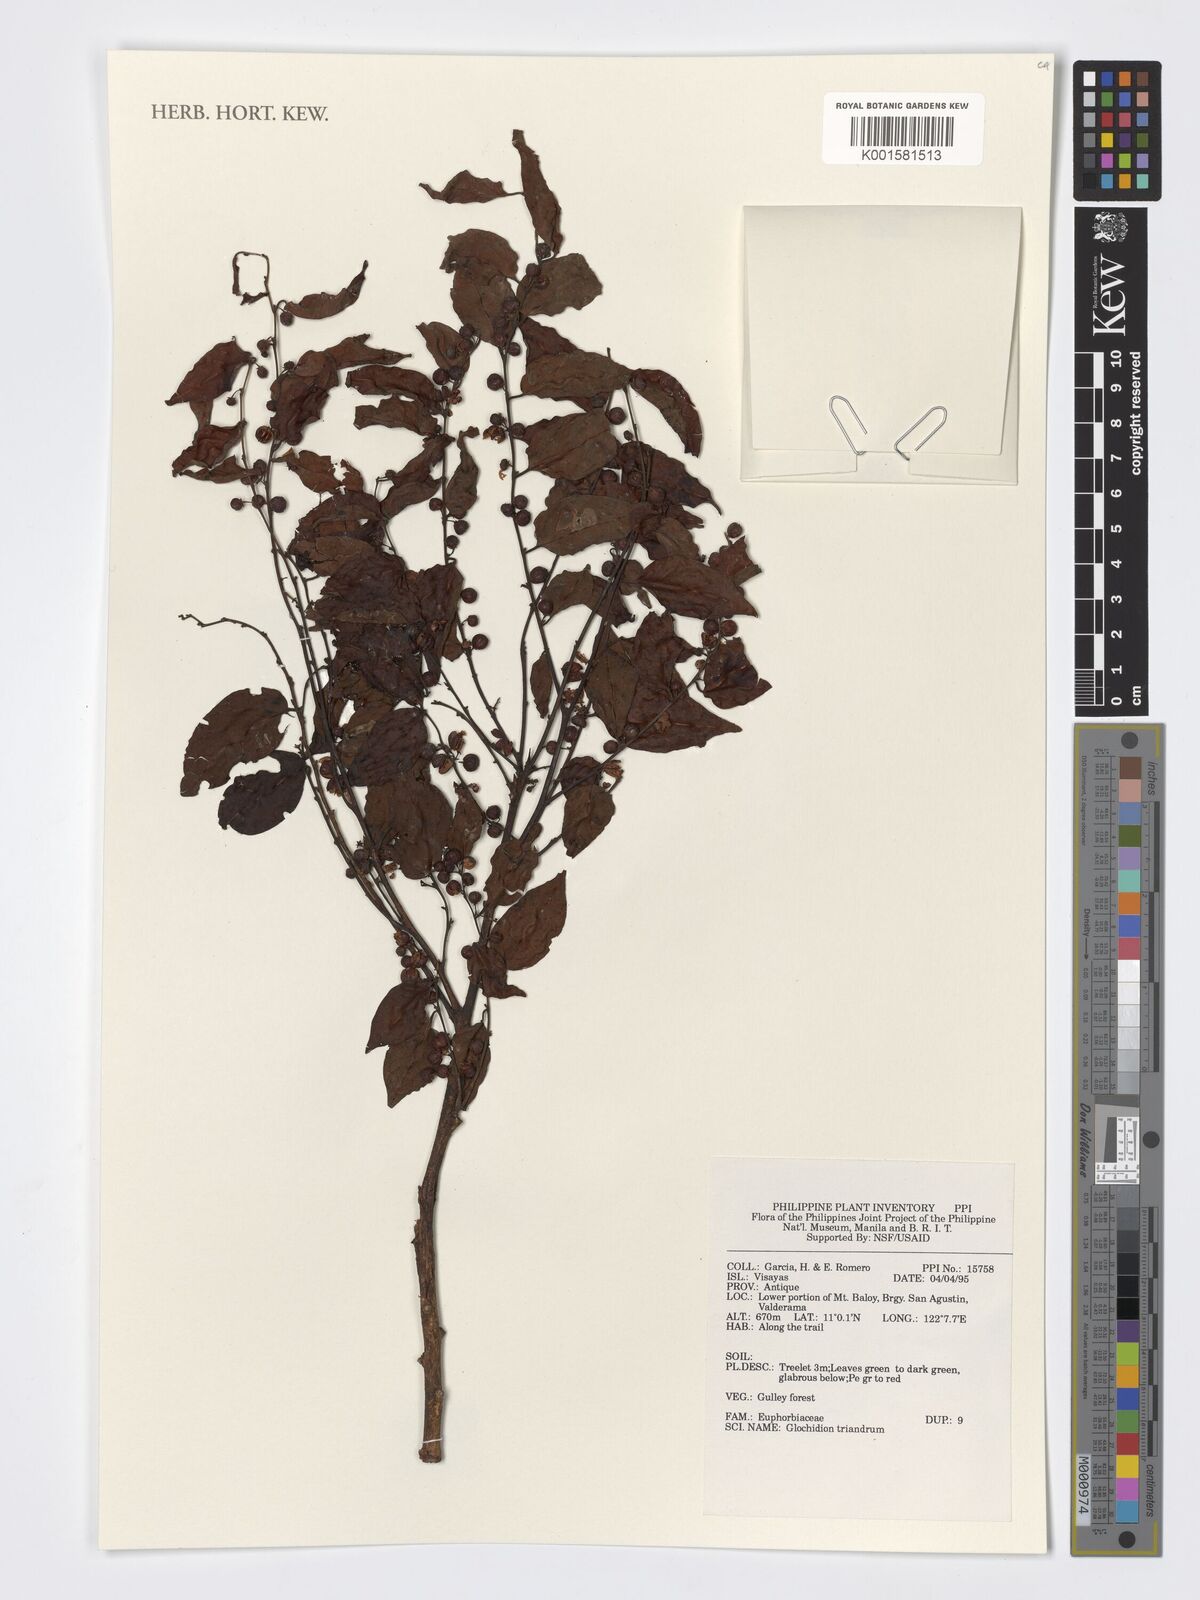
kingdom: Plantae
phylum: Tracheophyta
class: Magnoliopsida
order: Malpighiales
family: Phyllanthaceae
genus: Glochidion
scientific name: Glochidion triandrum
